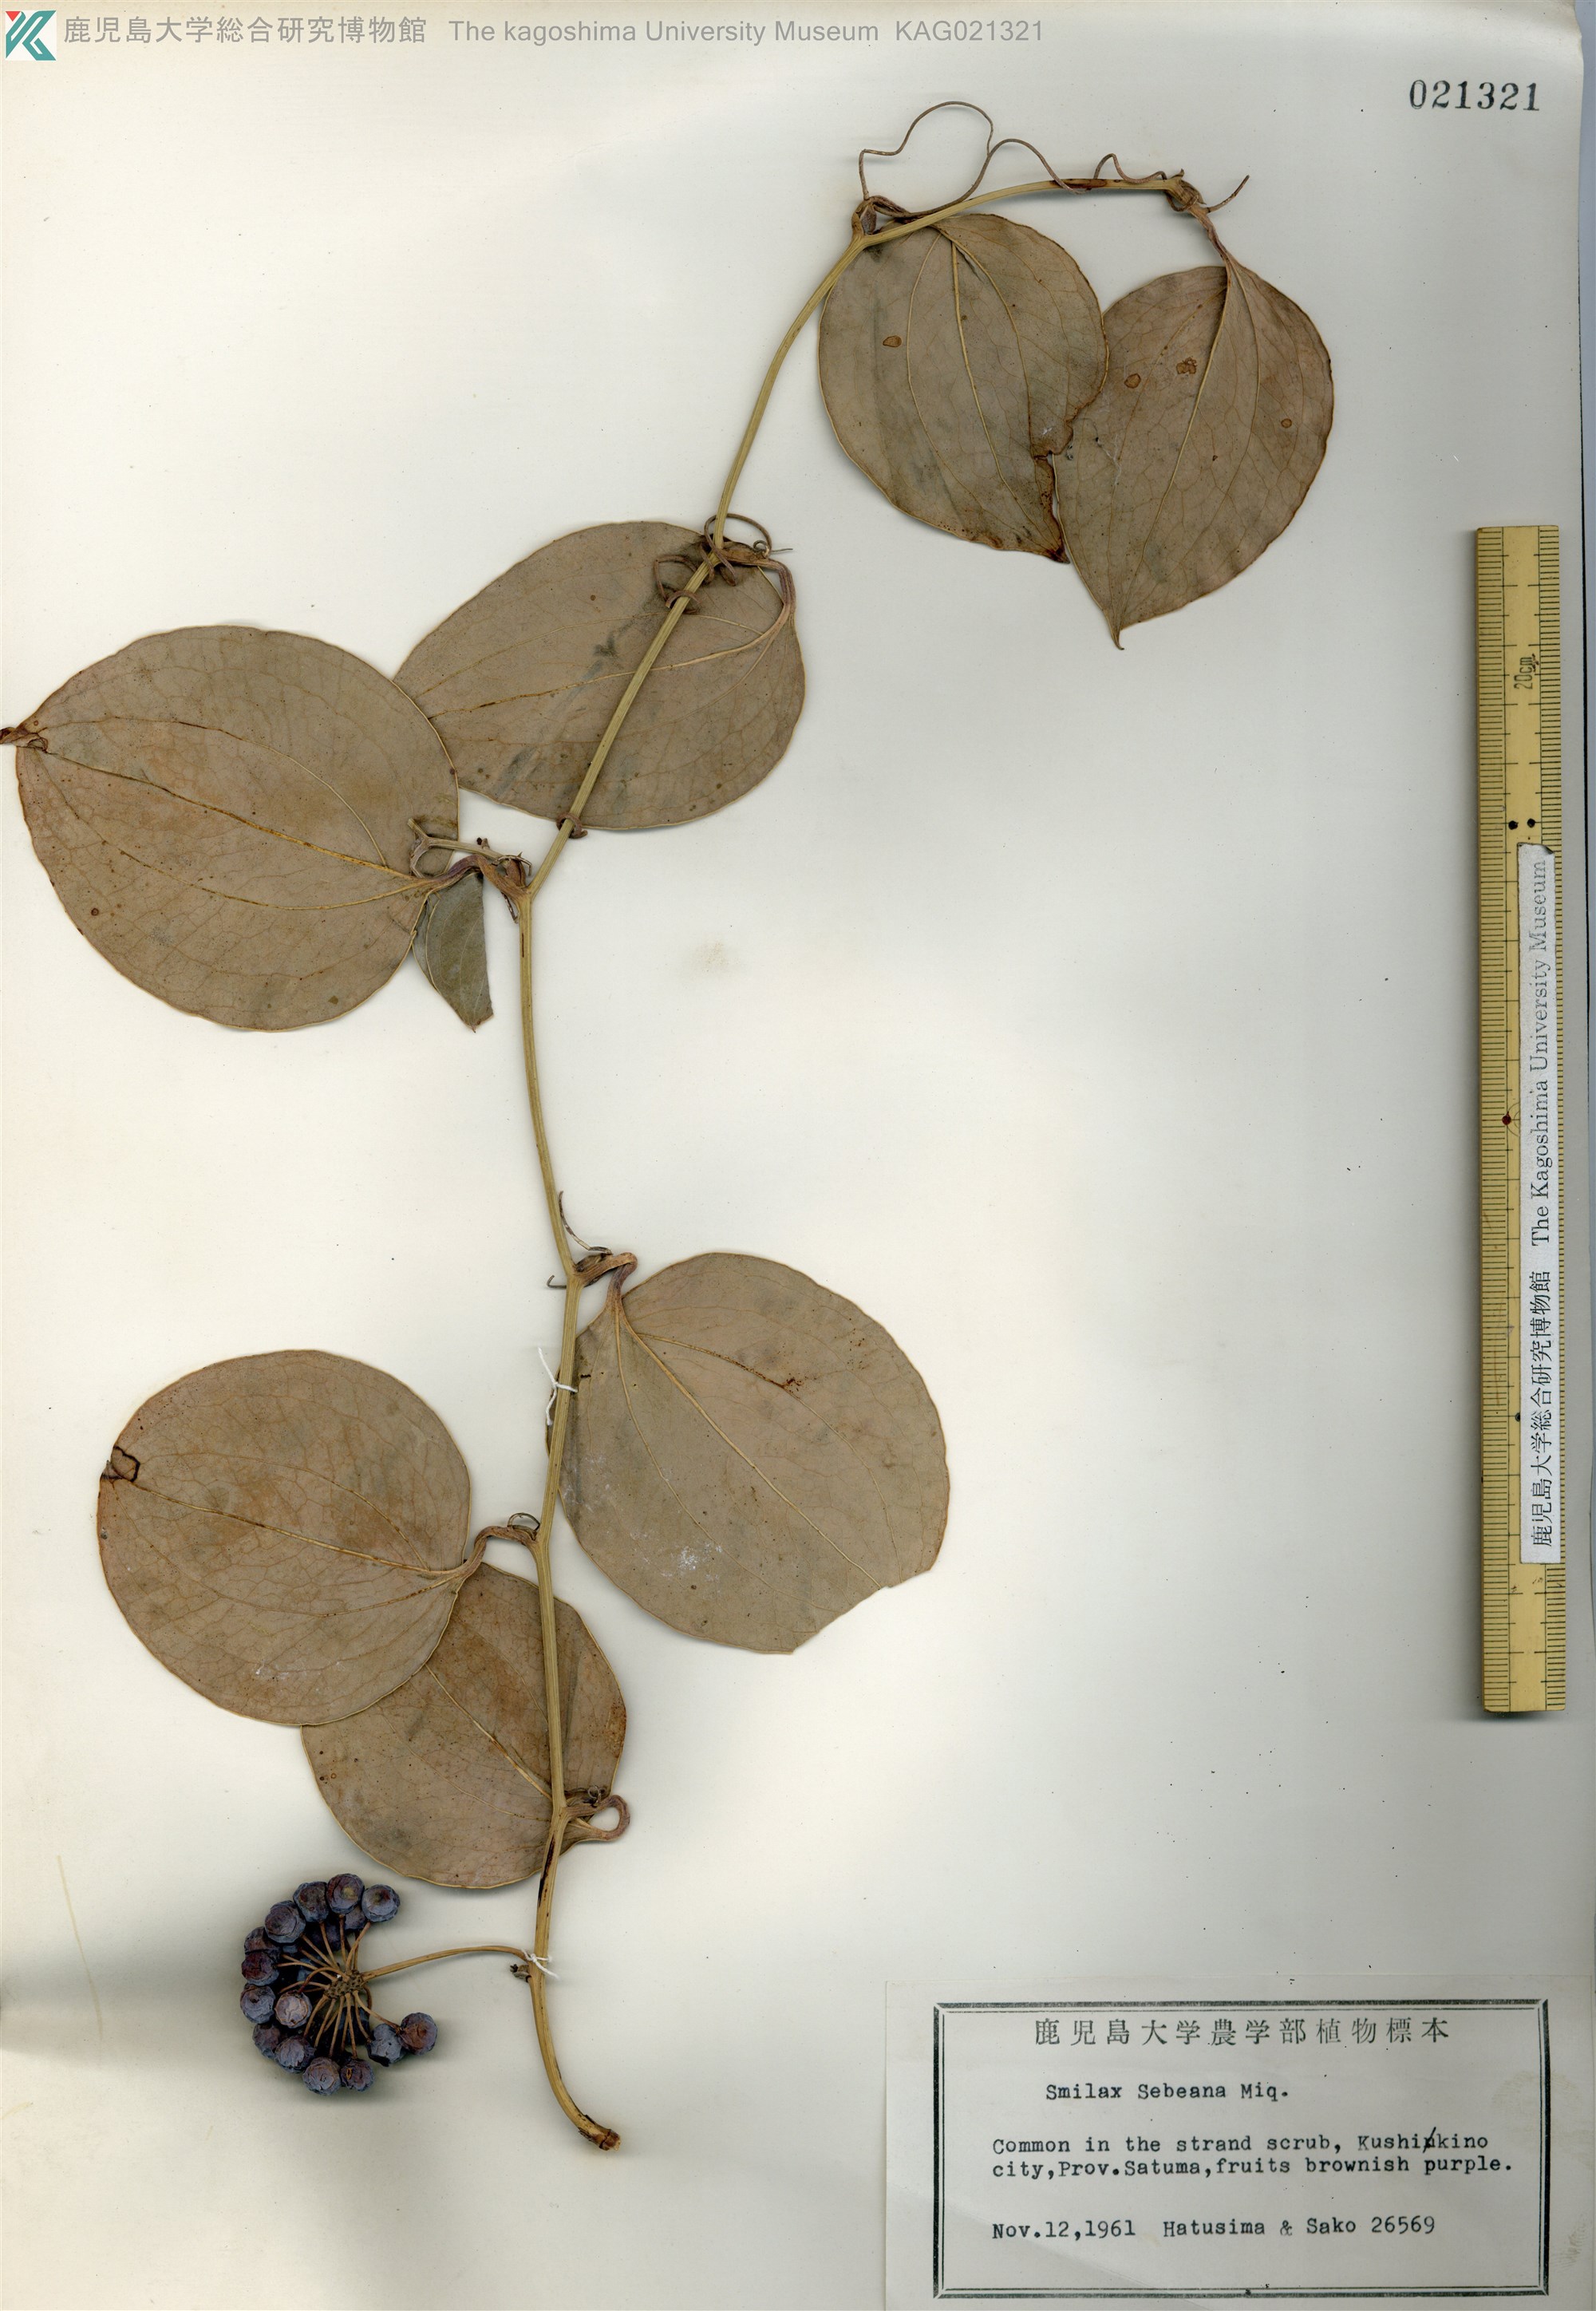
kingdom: Plantae
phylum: Tracheophyta
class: Liliopsida
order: Liliales
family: Smilacaceae
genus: Smilax
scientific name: Smilax sebeana
